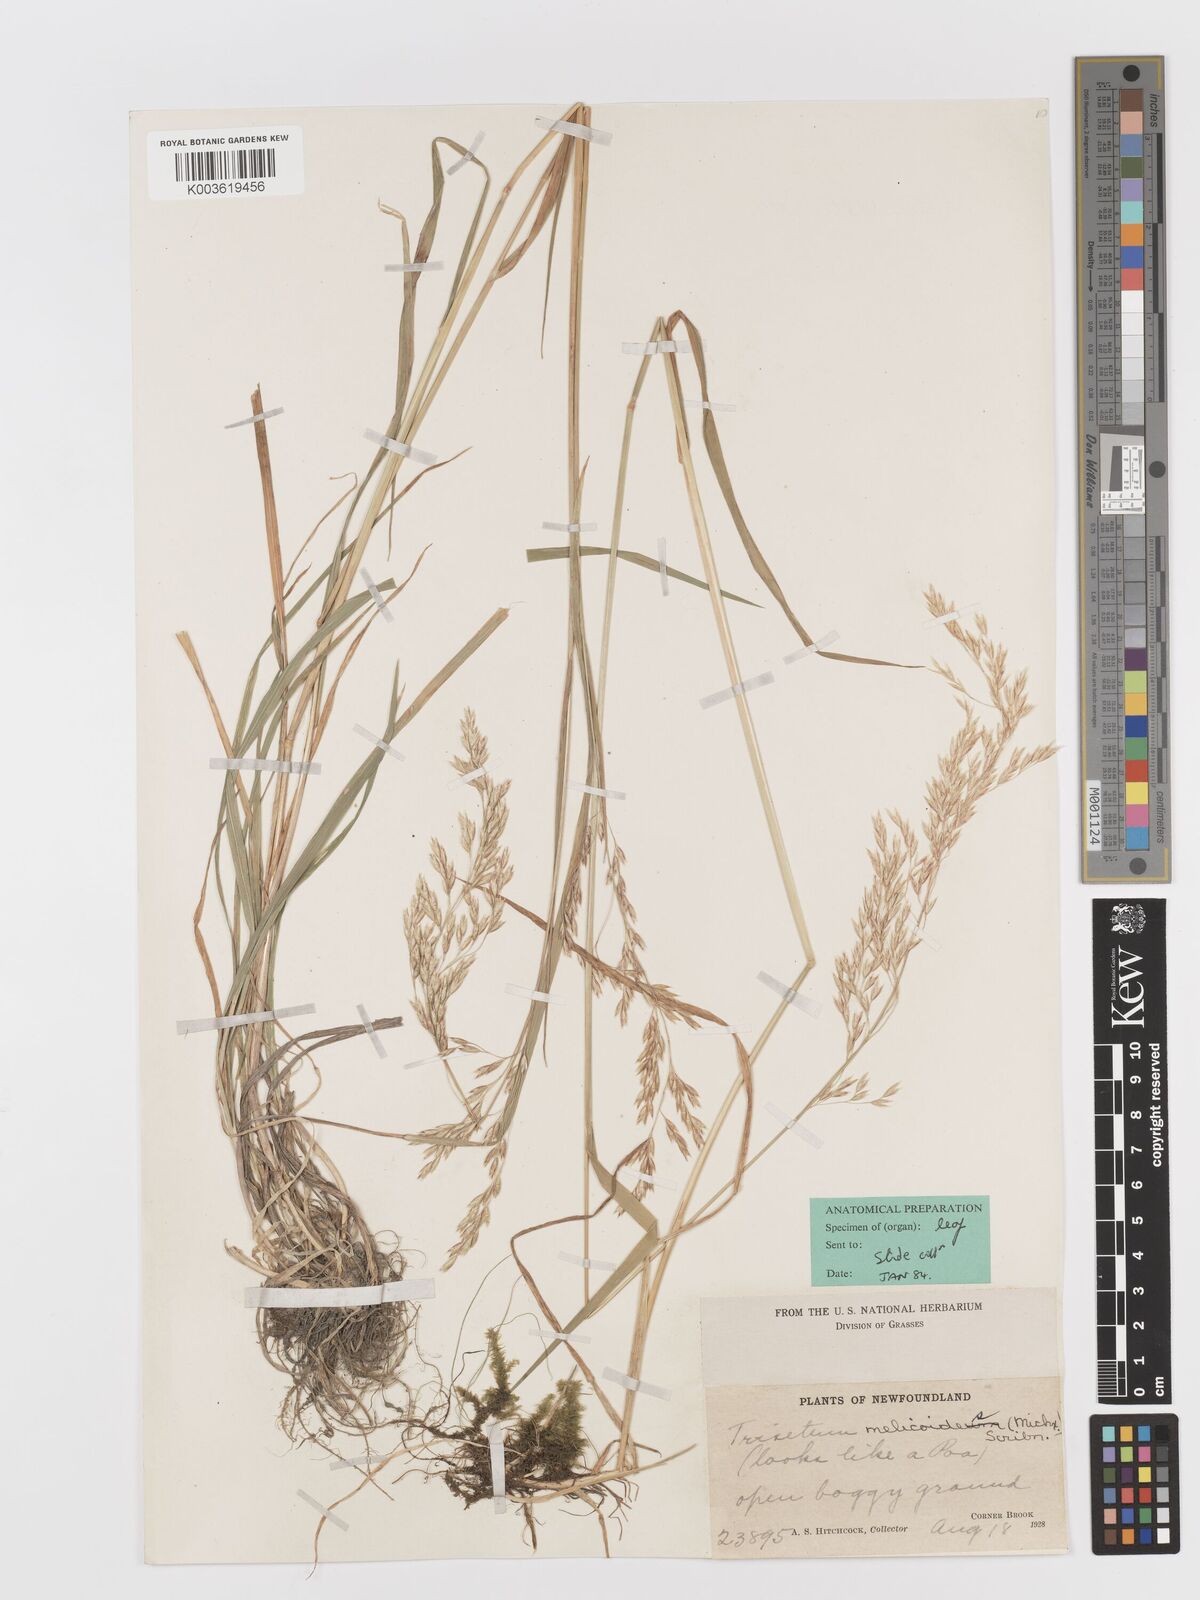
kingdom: Plantae
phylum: Tracheophyta
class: Liliopsida
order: Poales
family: Poaceae
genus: Graphephorum
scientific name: Graphephorum melicoides
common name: False melic
